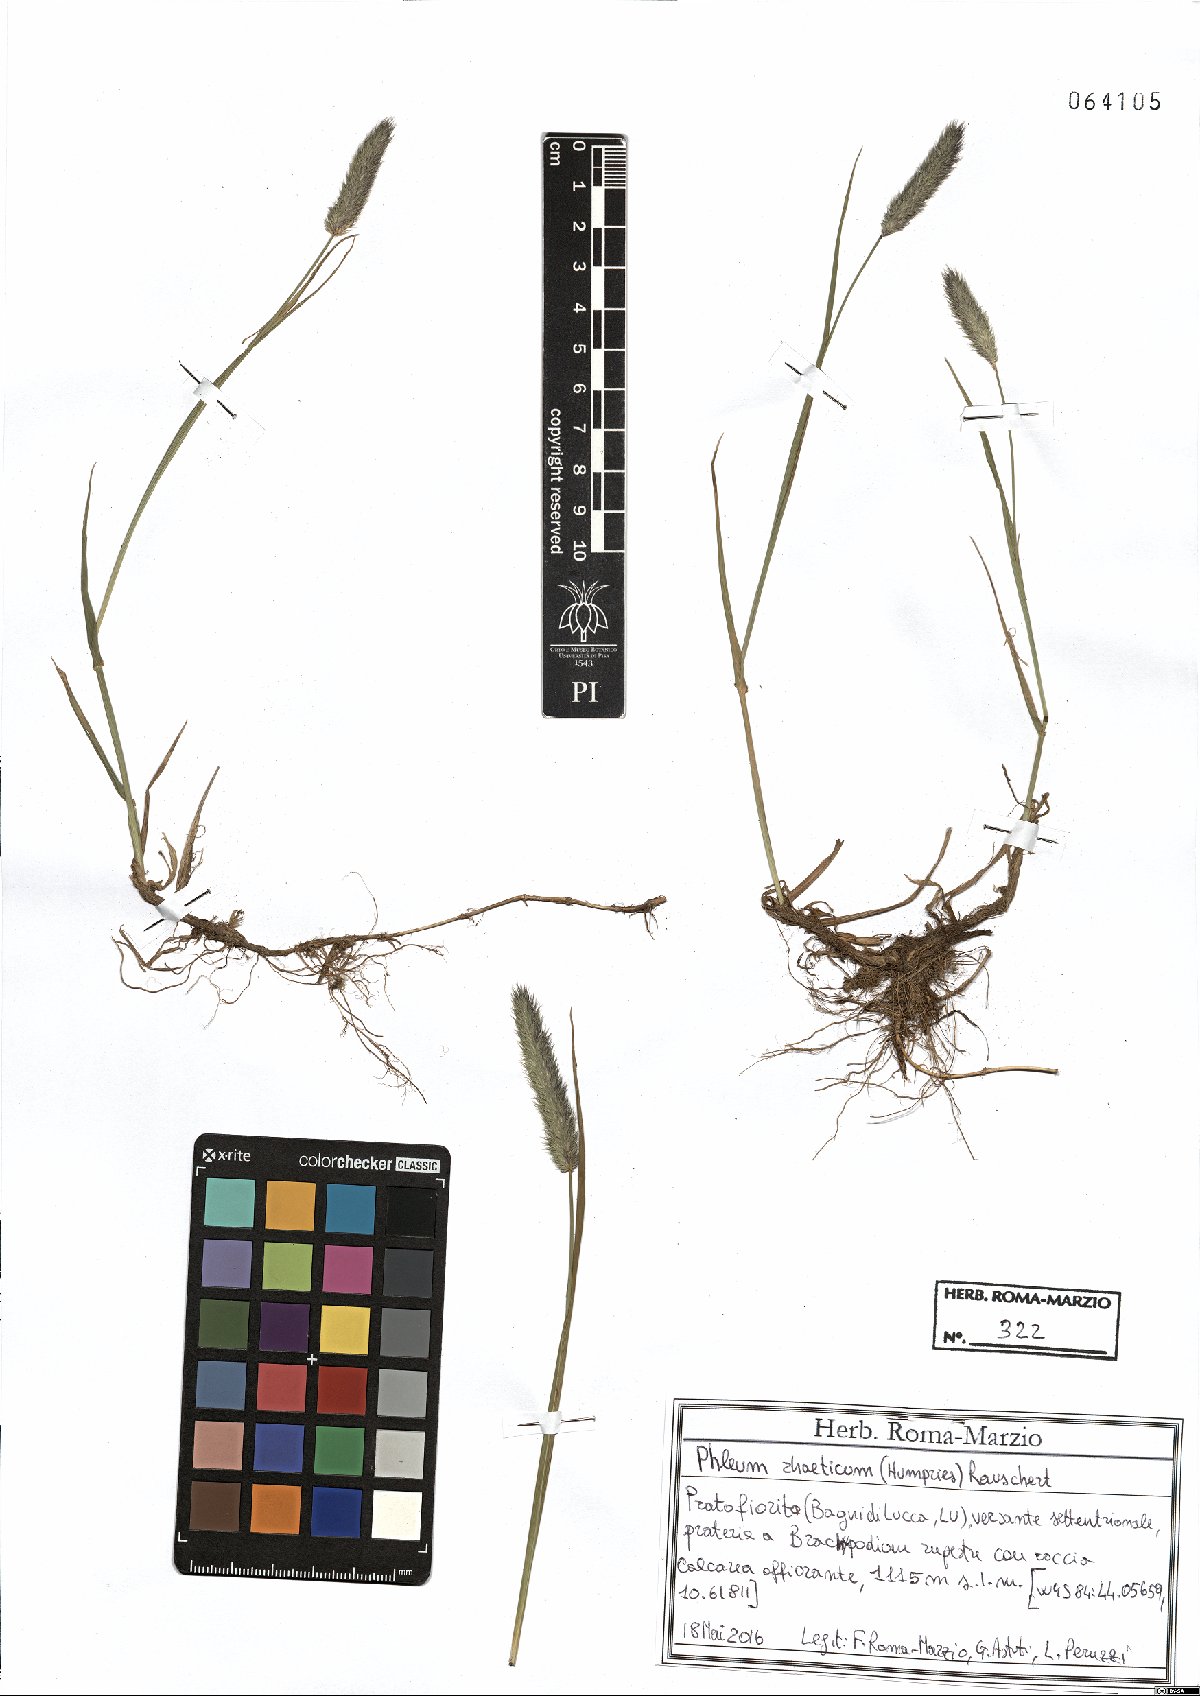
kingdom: Plantae
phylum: Tracheophyta
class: Liliopsida
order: Poales
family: Poaceae
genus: Phleum
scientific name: Phleum alpinum
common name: Alpine cat's-tail
